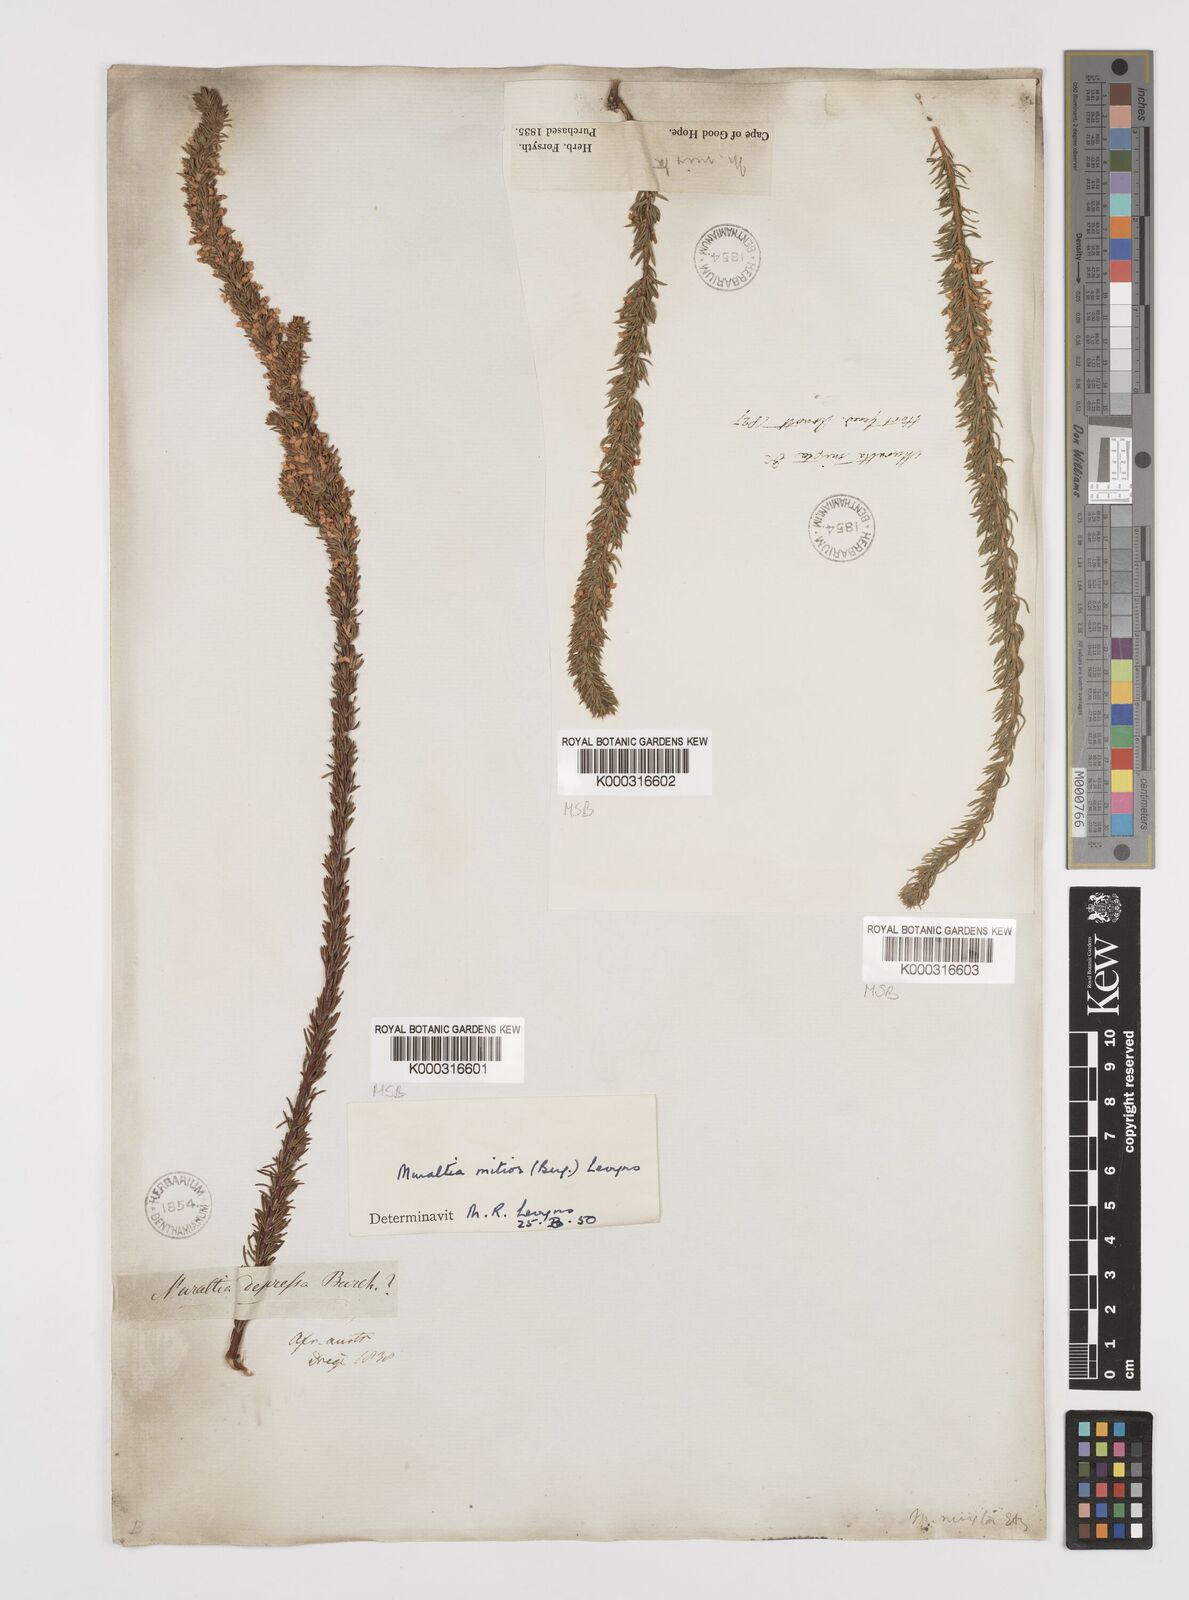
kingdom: Plantae
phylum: Tracheophyta
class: Magnoliopsida
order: Fabales
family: Polygalaceae
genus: Muraltia
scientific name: Muraltia
